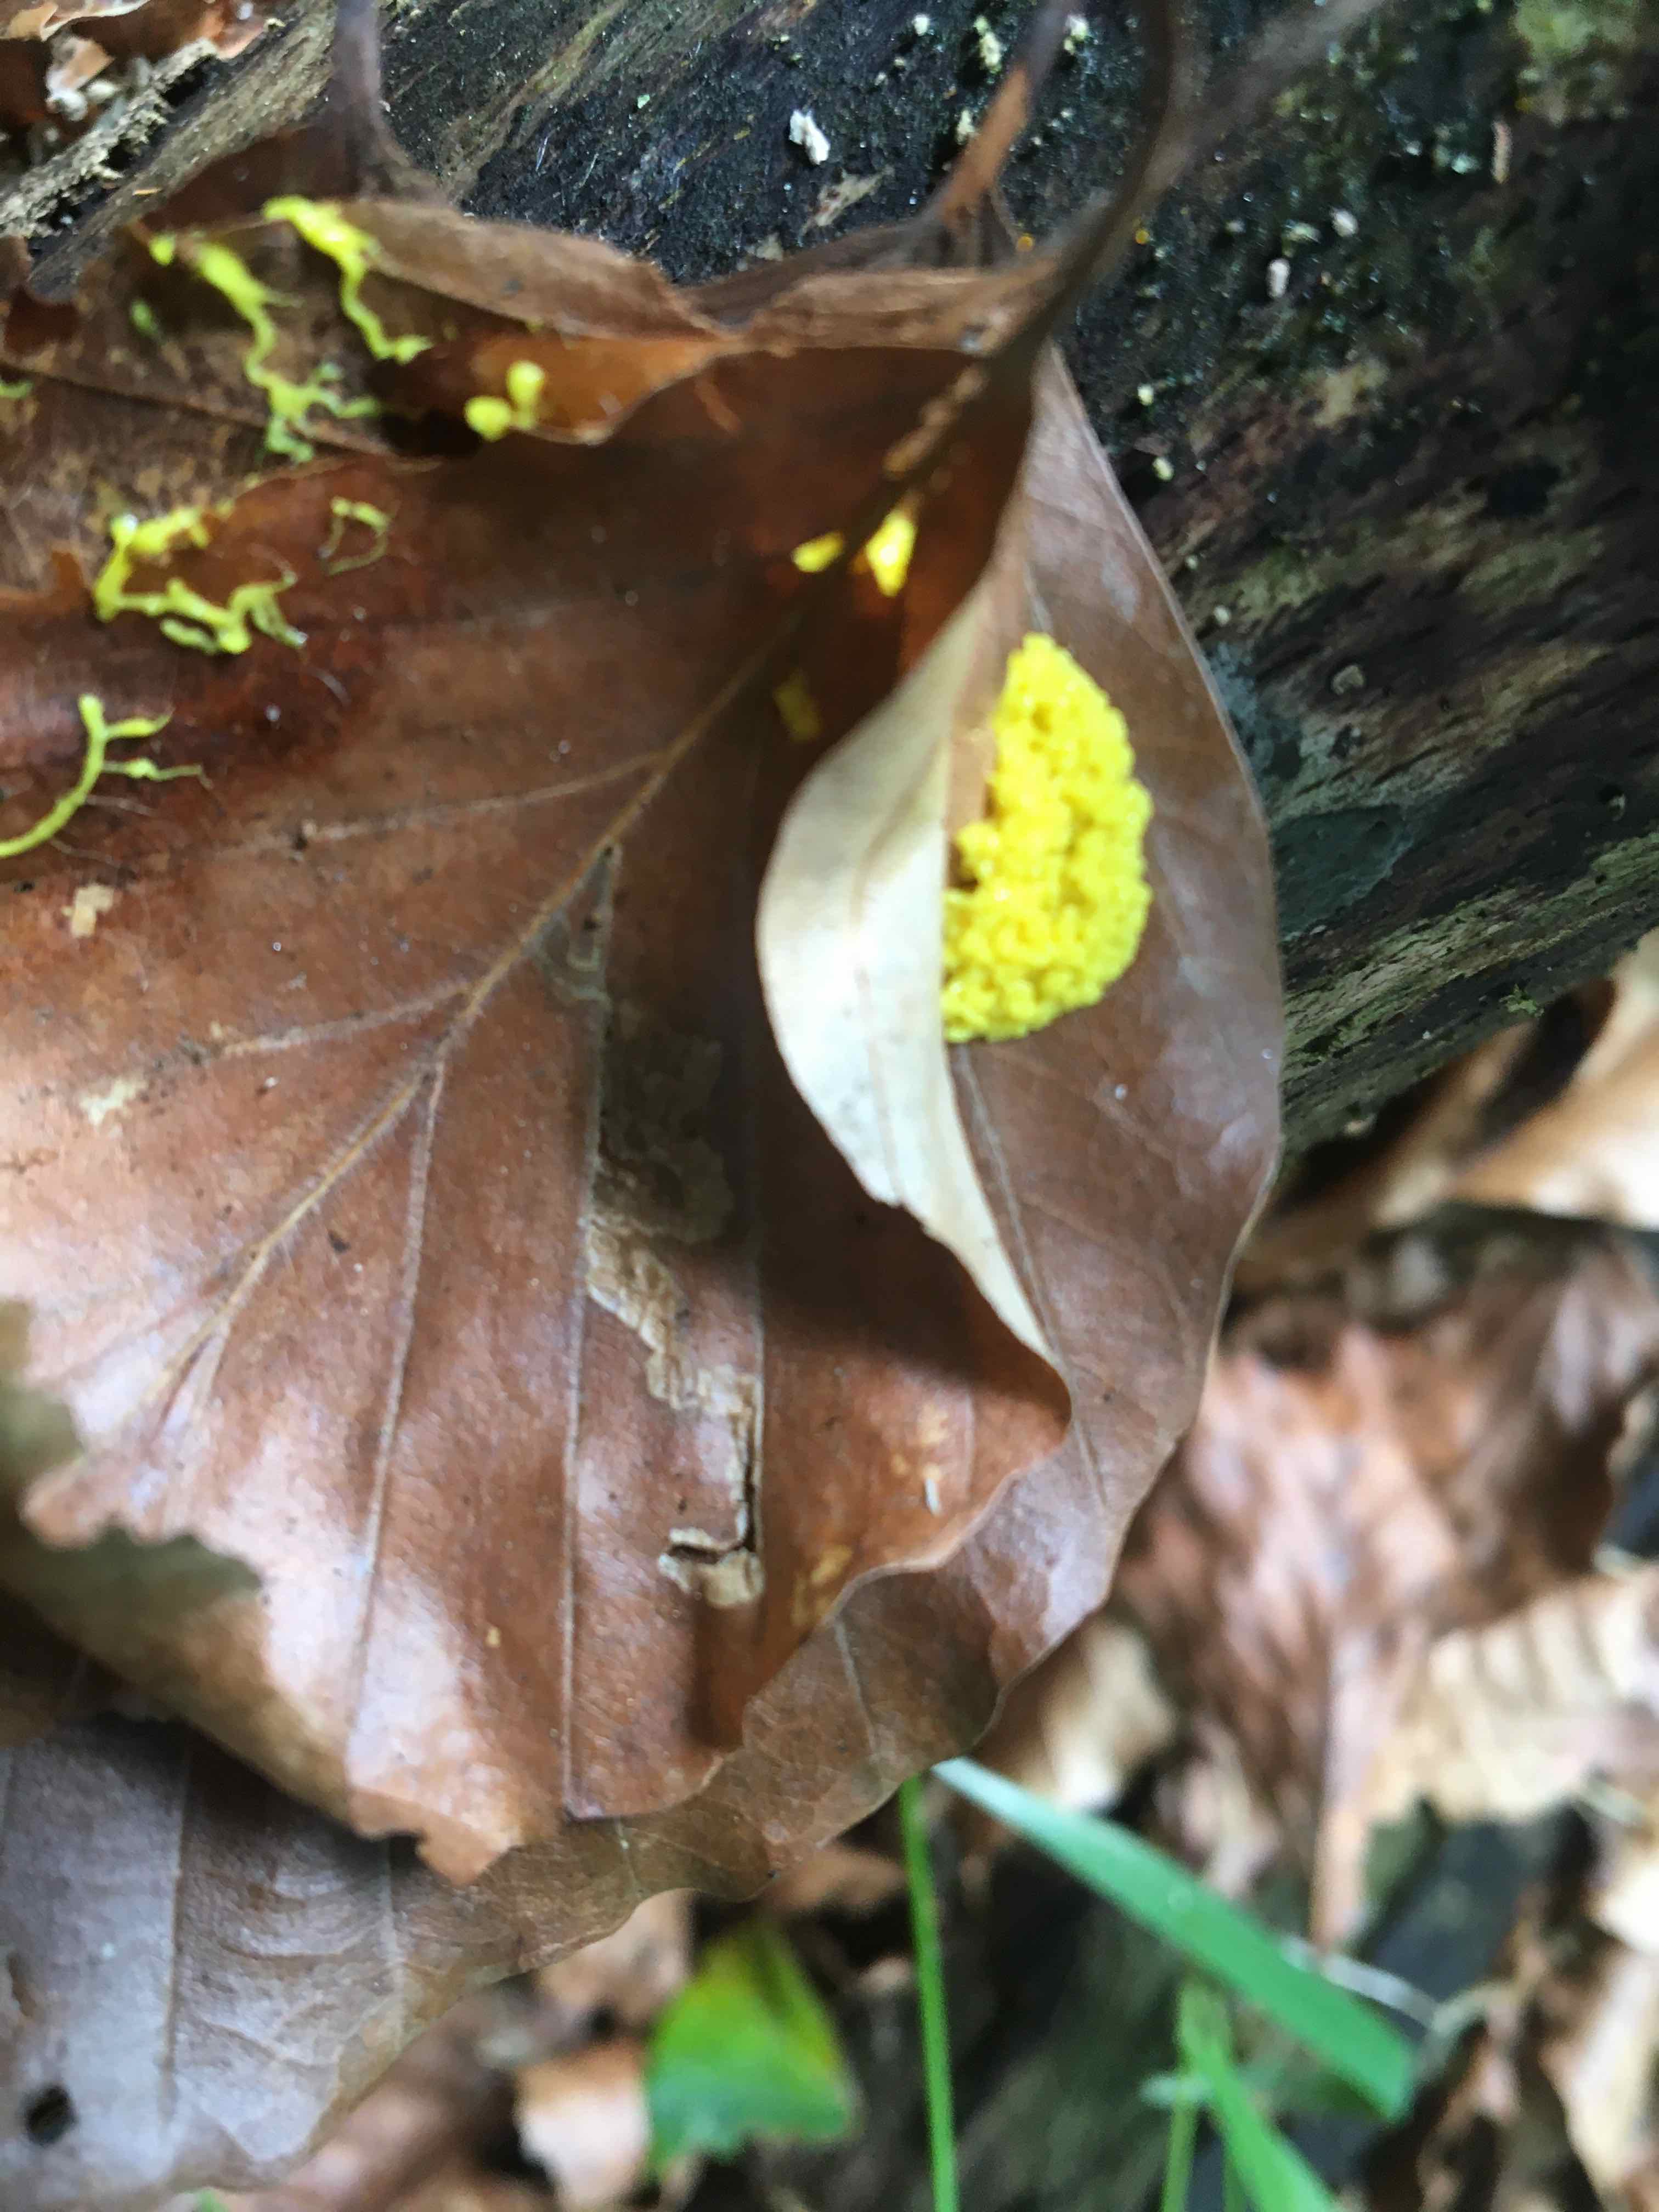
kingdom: Protozoa
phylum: Mycetozoa
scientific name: Mycetozoa
